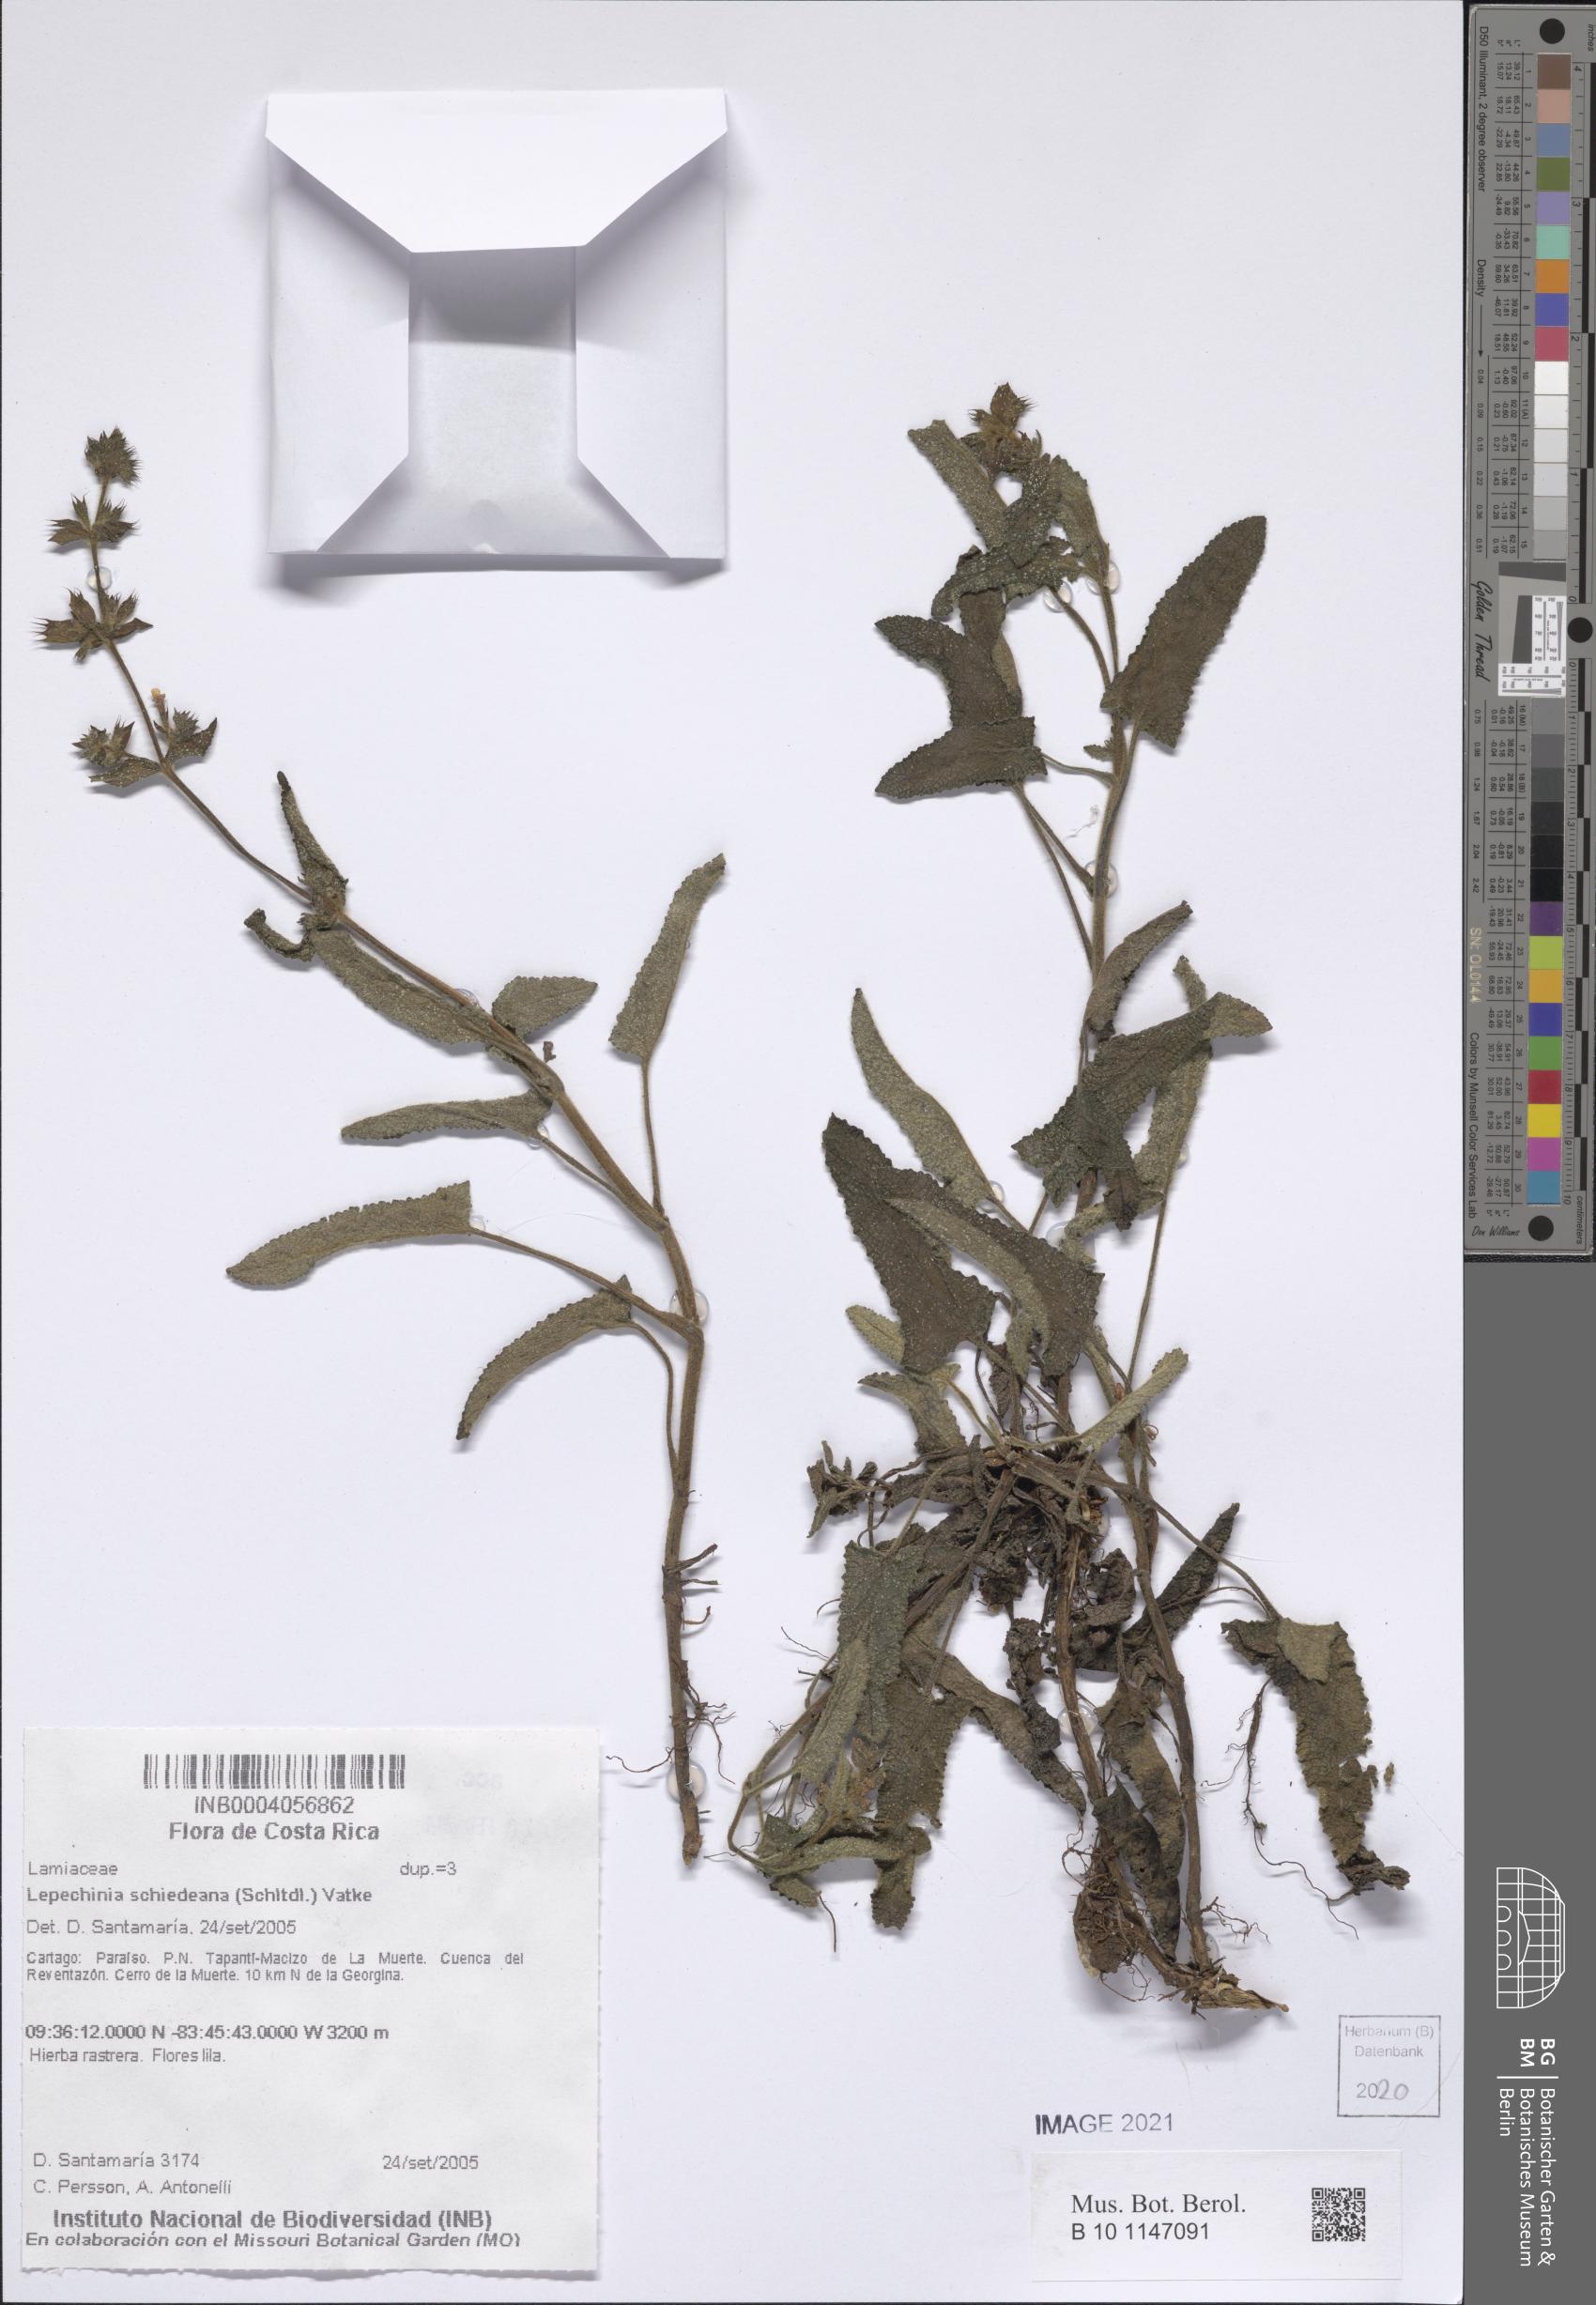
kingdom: Plantae
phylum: Tracheophyta
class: Magnoliopsida
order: Lamiales
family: Lamiaceae
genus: Lepechinia
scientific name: Lepechinia schiedeana
